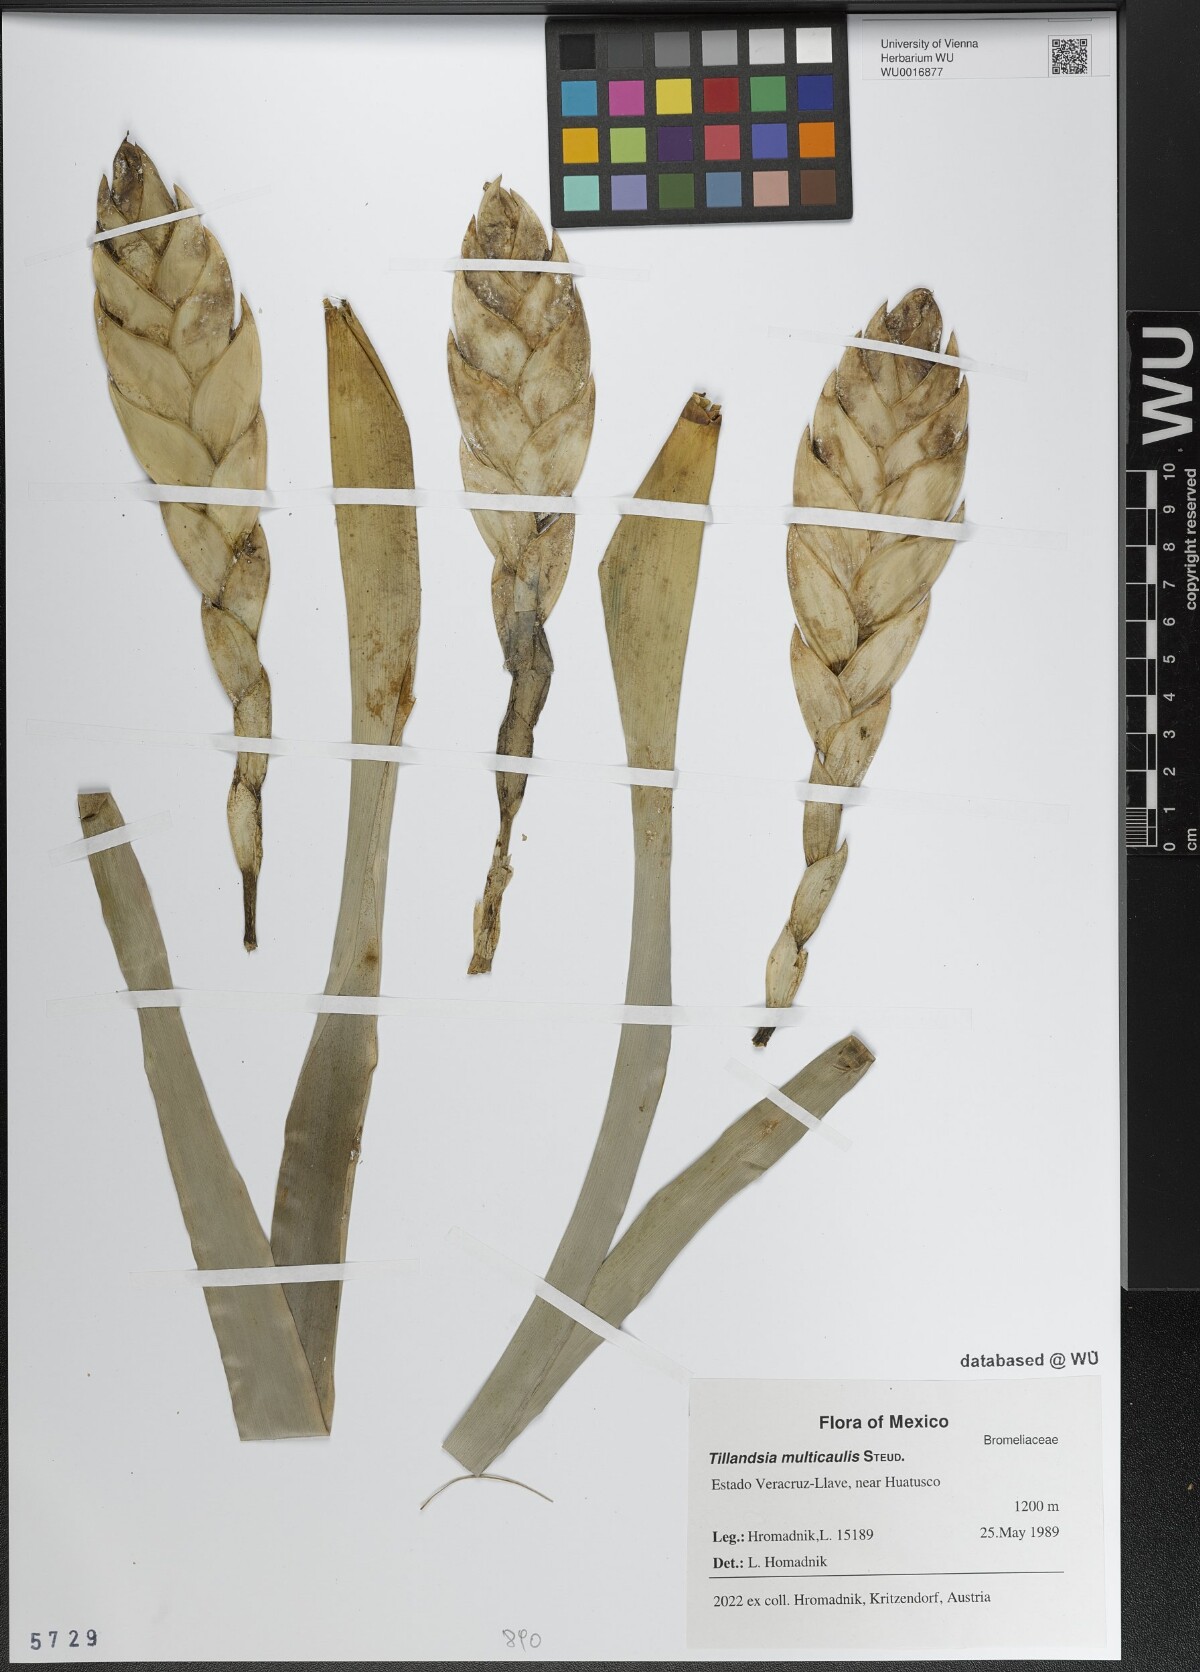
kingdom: Plantae
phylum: Tracheophyta
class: Liliopsida
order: Poales
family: Bromeliaceae
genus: Tillandsia
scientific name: Tillandsia multicaulis
